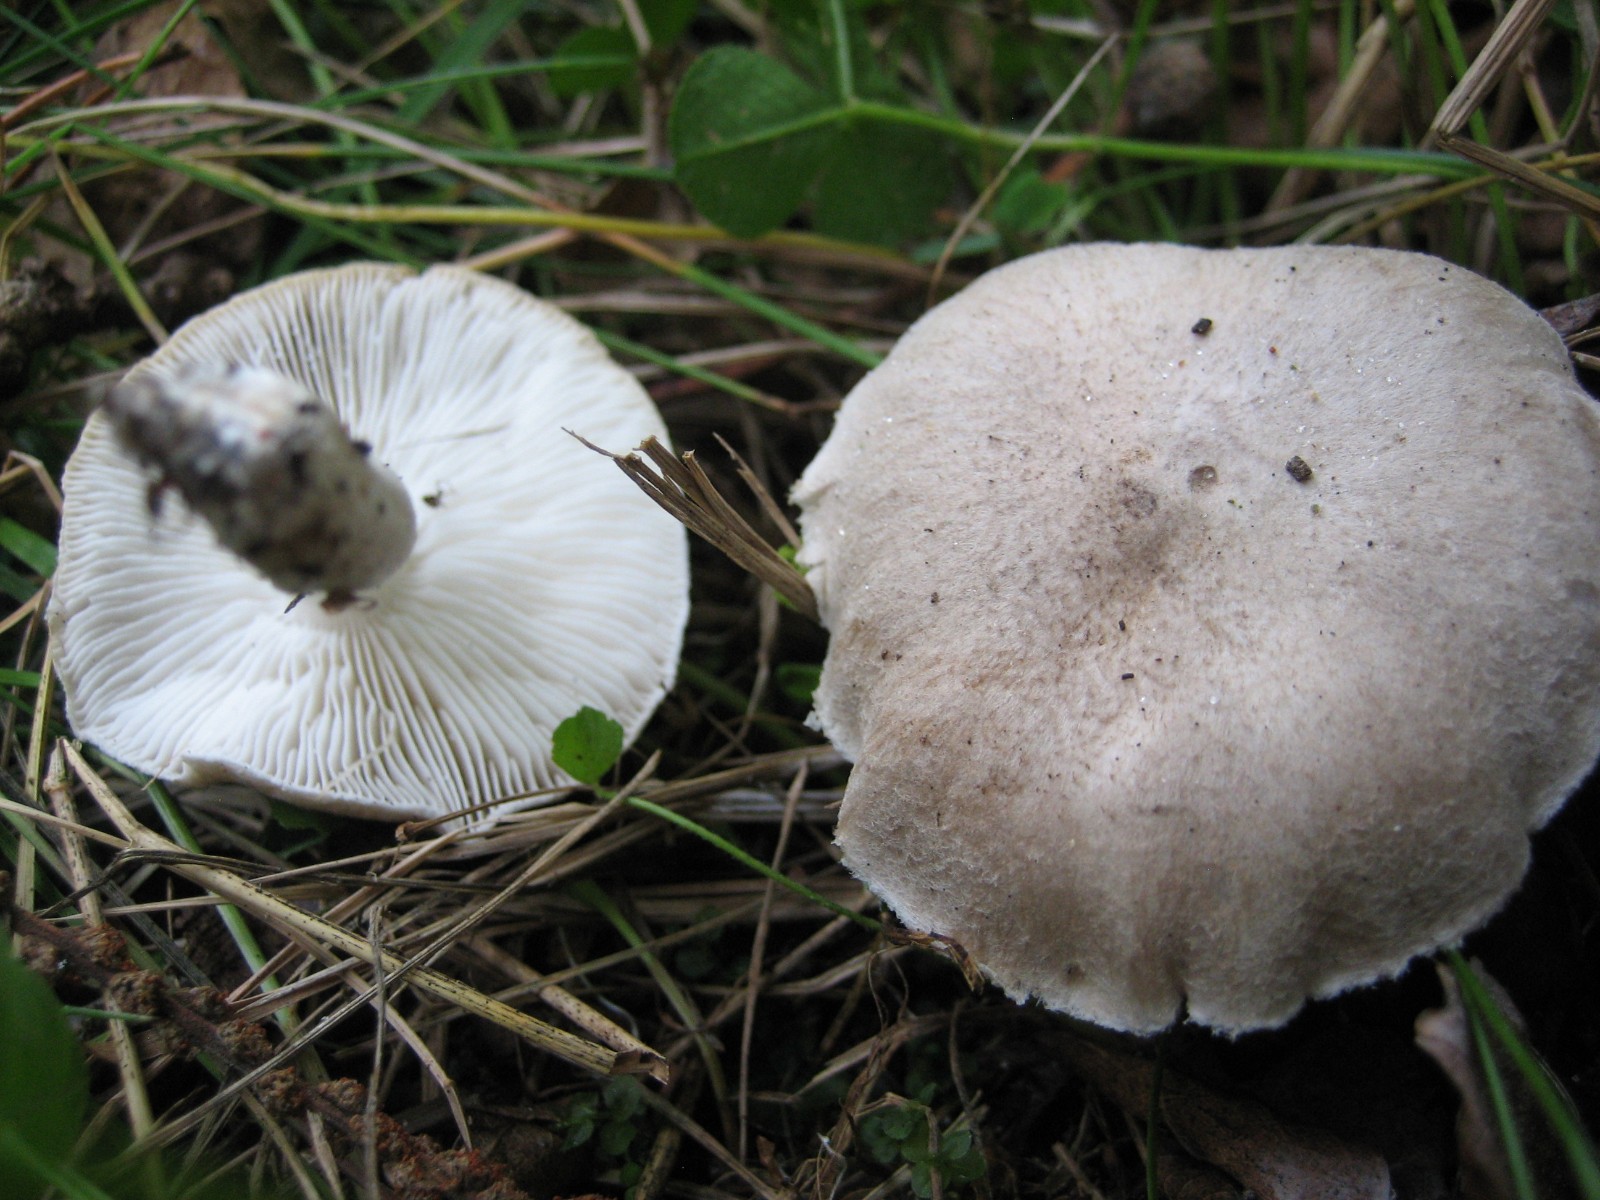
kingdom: Fungi
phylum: Basidiomycota
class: Agaricomycetes
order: Agaricales
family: Tricholomataceae
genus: Tricholoma
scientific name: Tricholoma argyraceum
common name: slør-ridderhat
